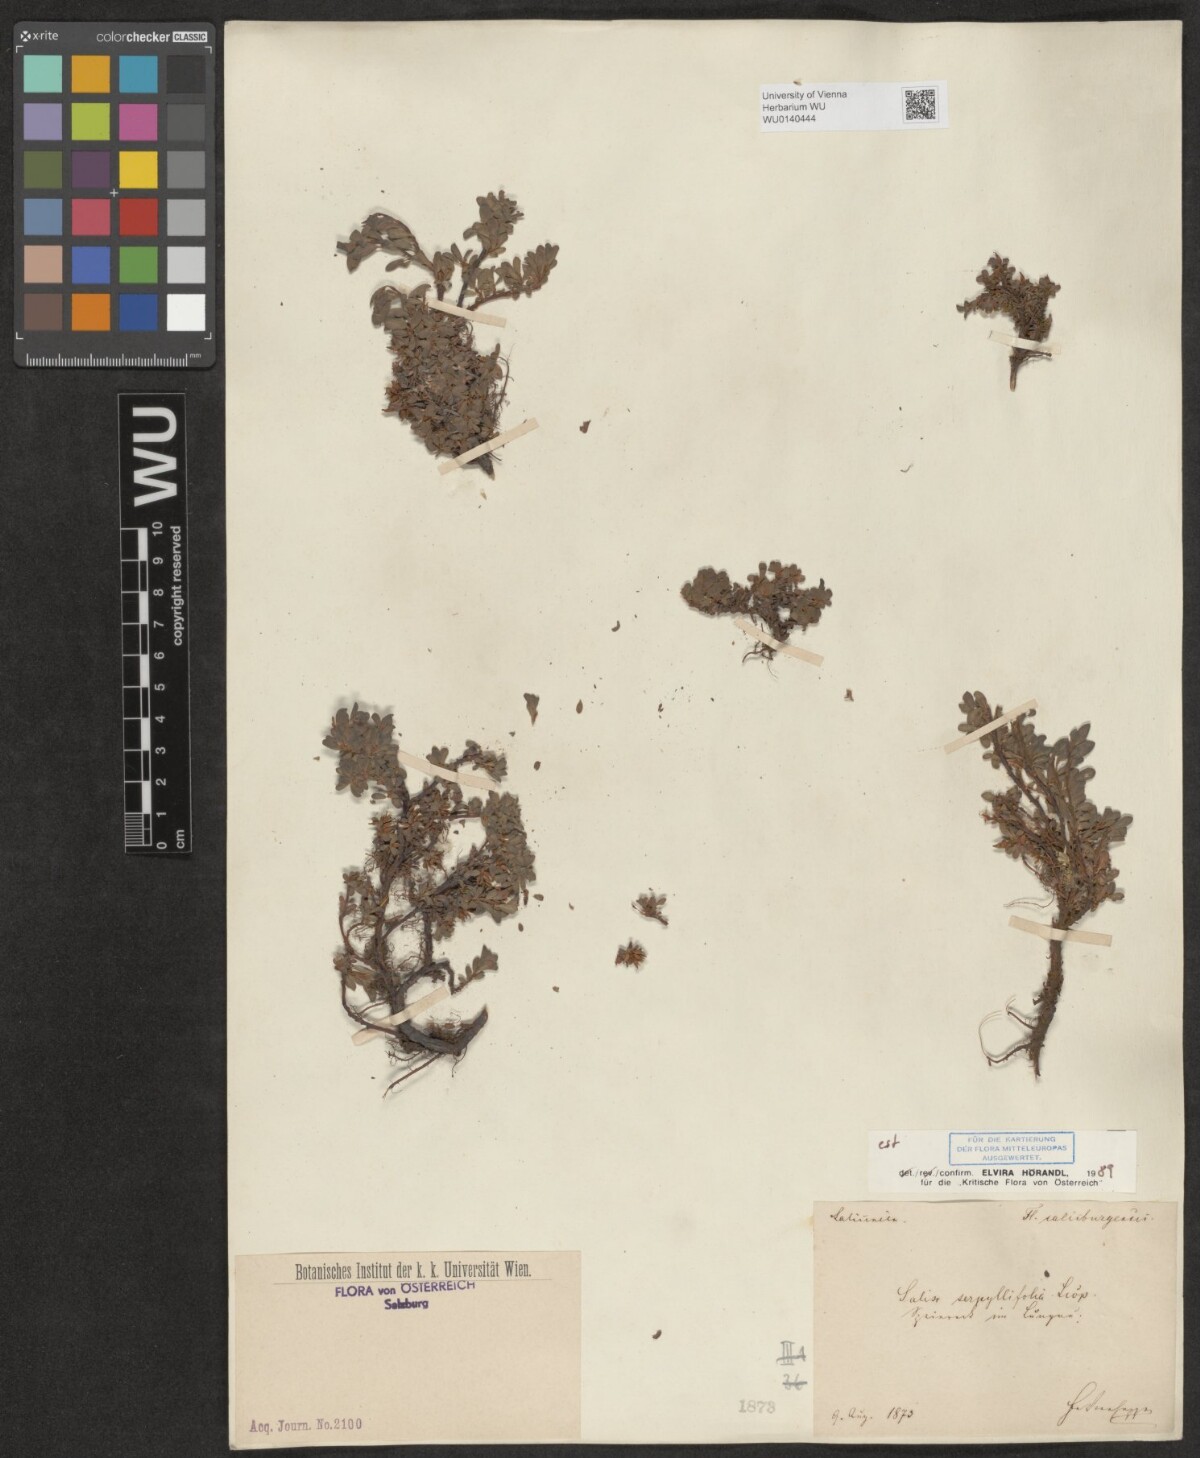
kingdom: Plantae
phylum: Tracheophyta
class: Magnoliopsida
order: Malpighiales
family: Salicaceae
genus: Salix
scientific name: Salix serpillifolia
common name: Thyme-leaf willow
